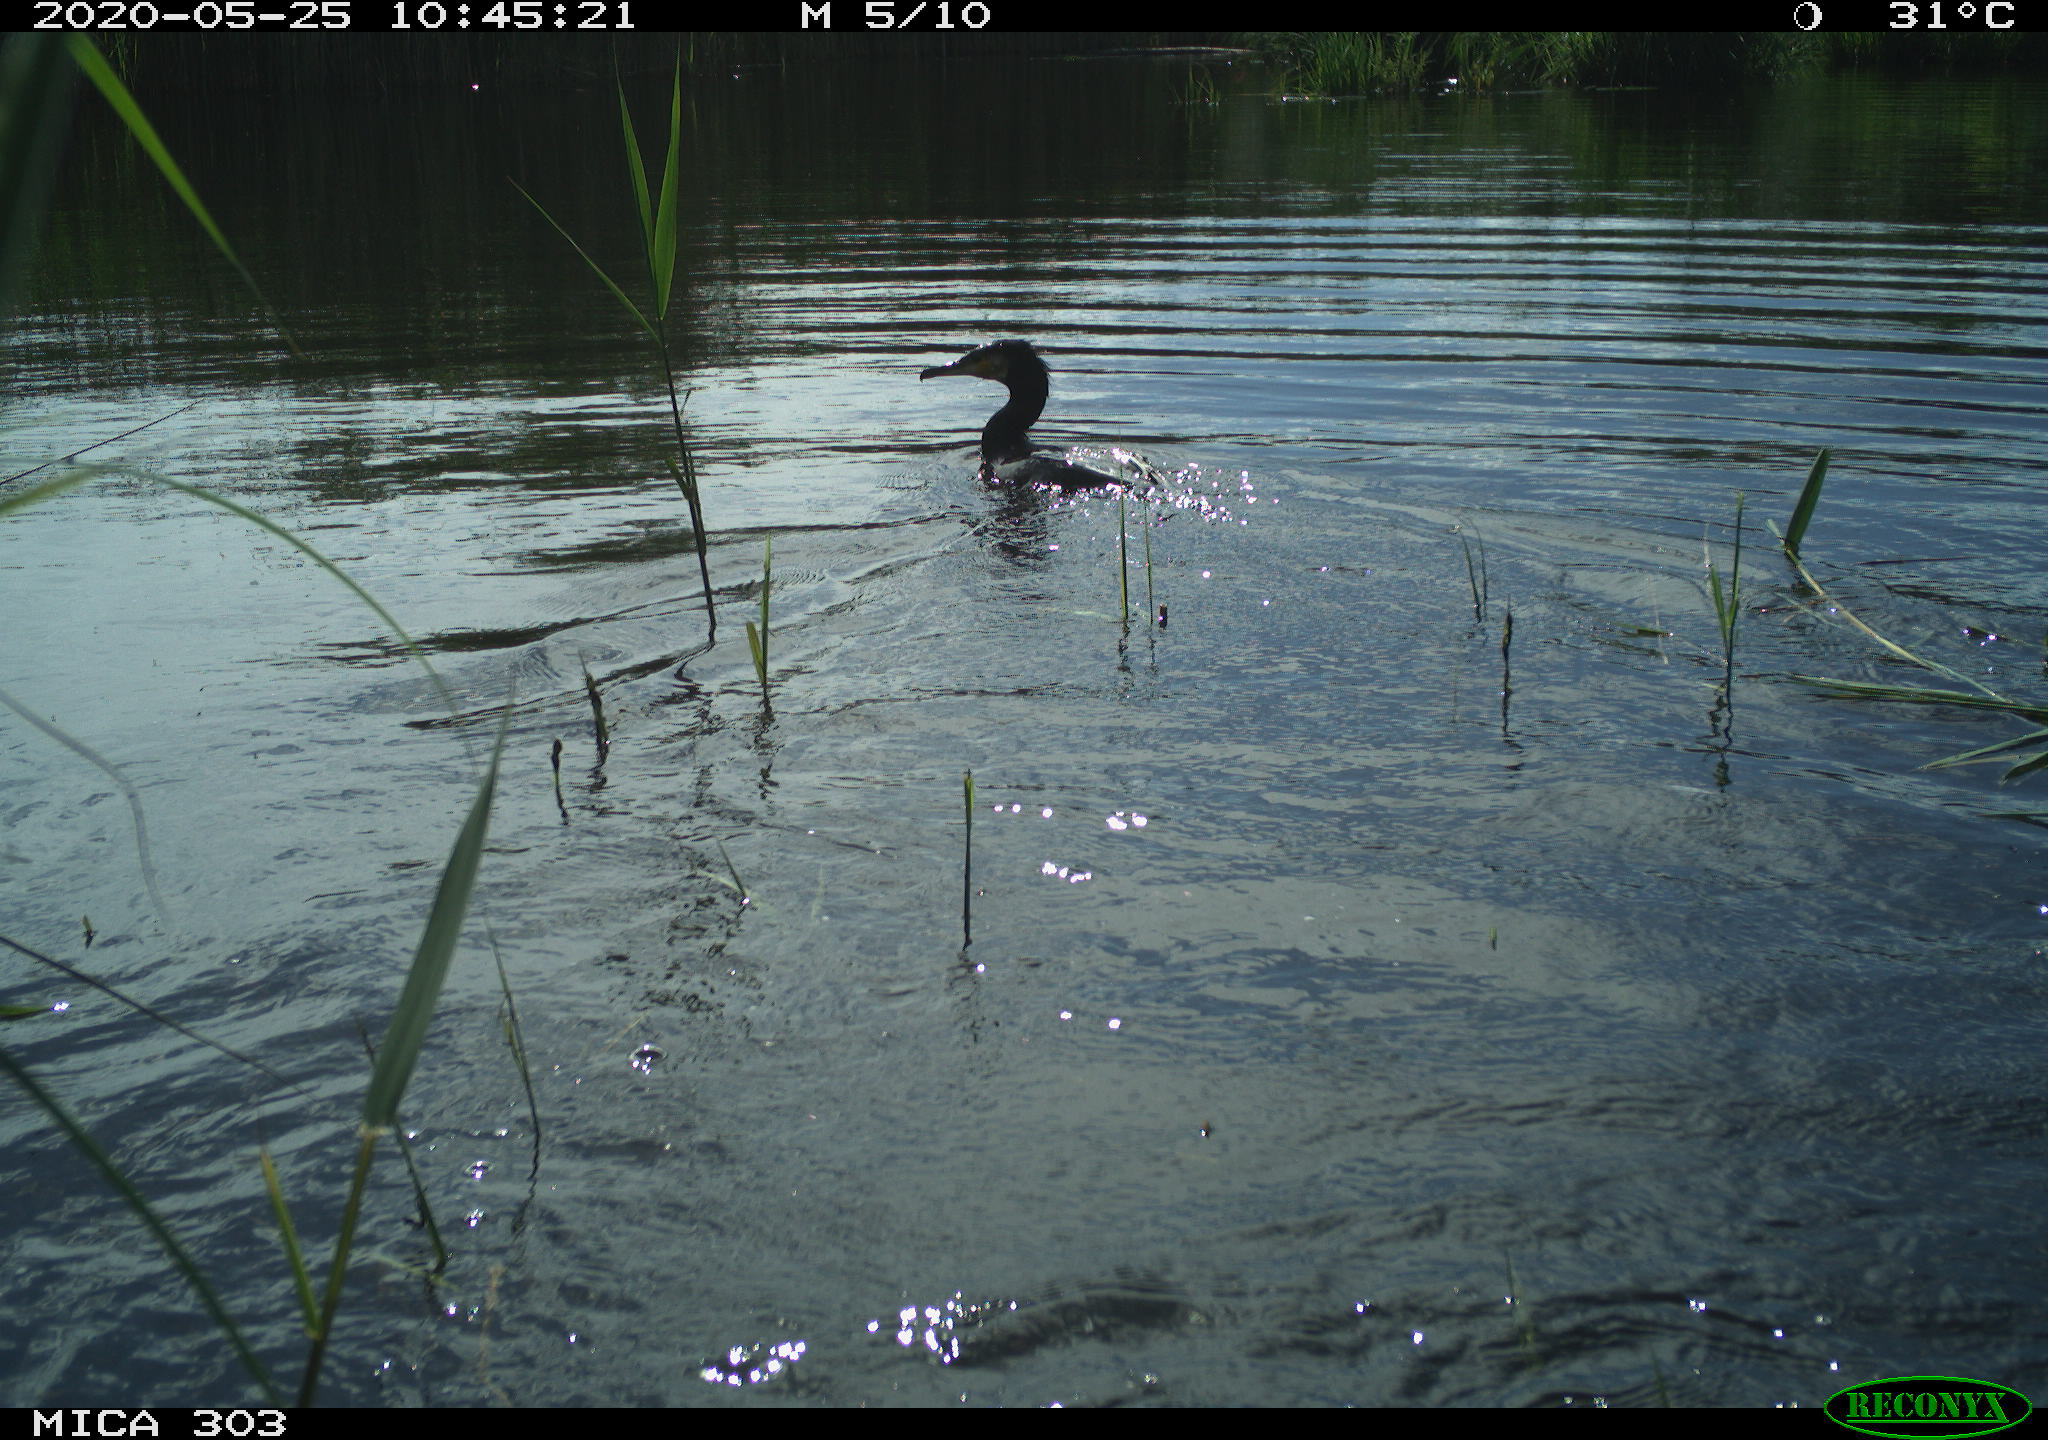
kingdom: Animalia
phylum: Chordata
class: Aves
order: Suliformes
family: Phalacrocoracidae
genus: Phalacrocorax
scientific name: Phalacrocorax carbo
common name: Great cormorant
